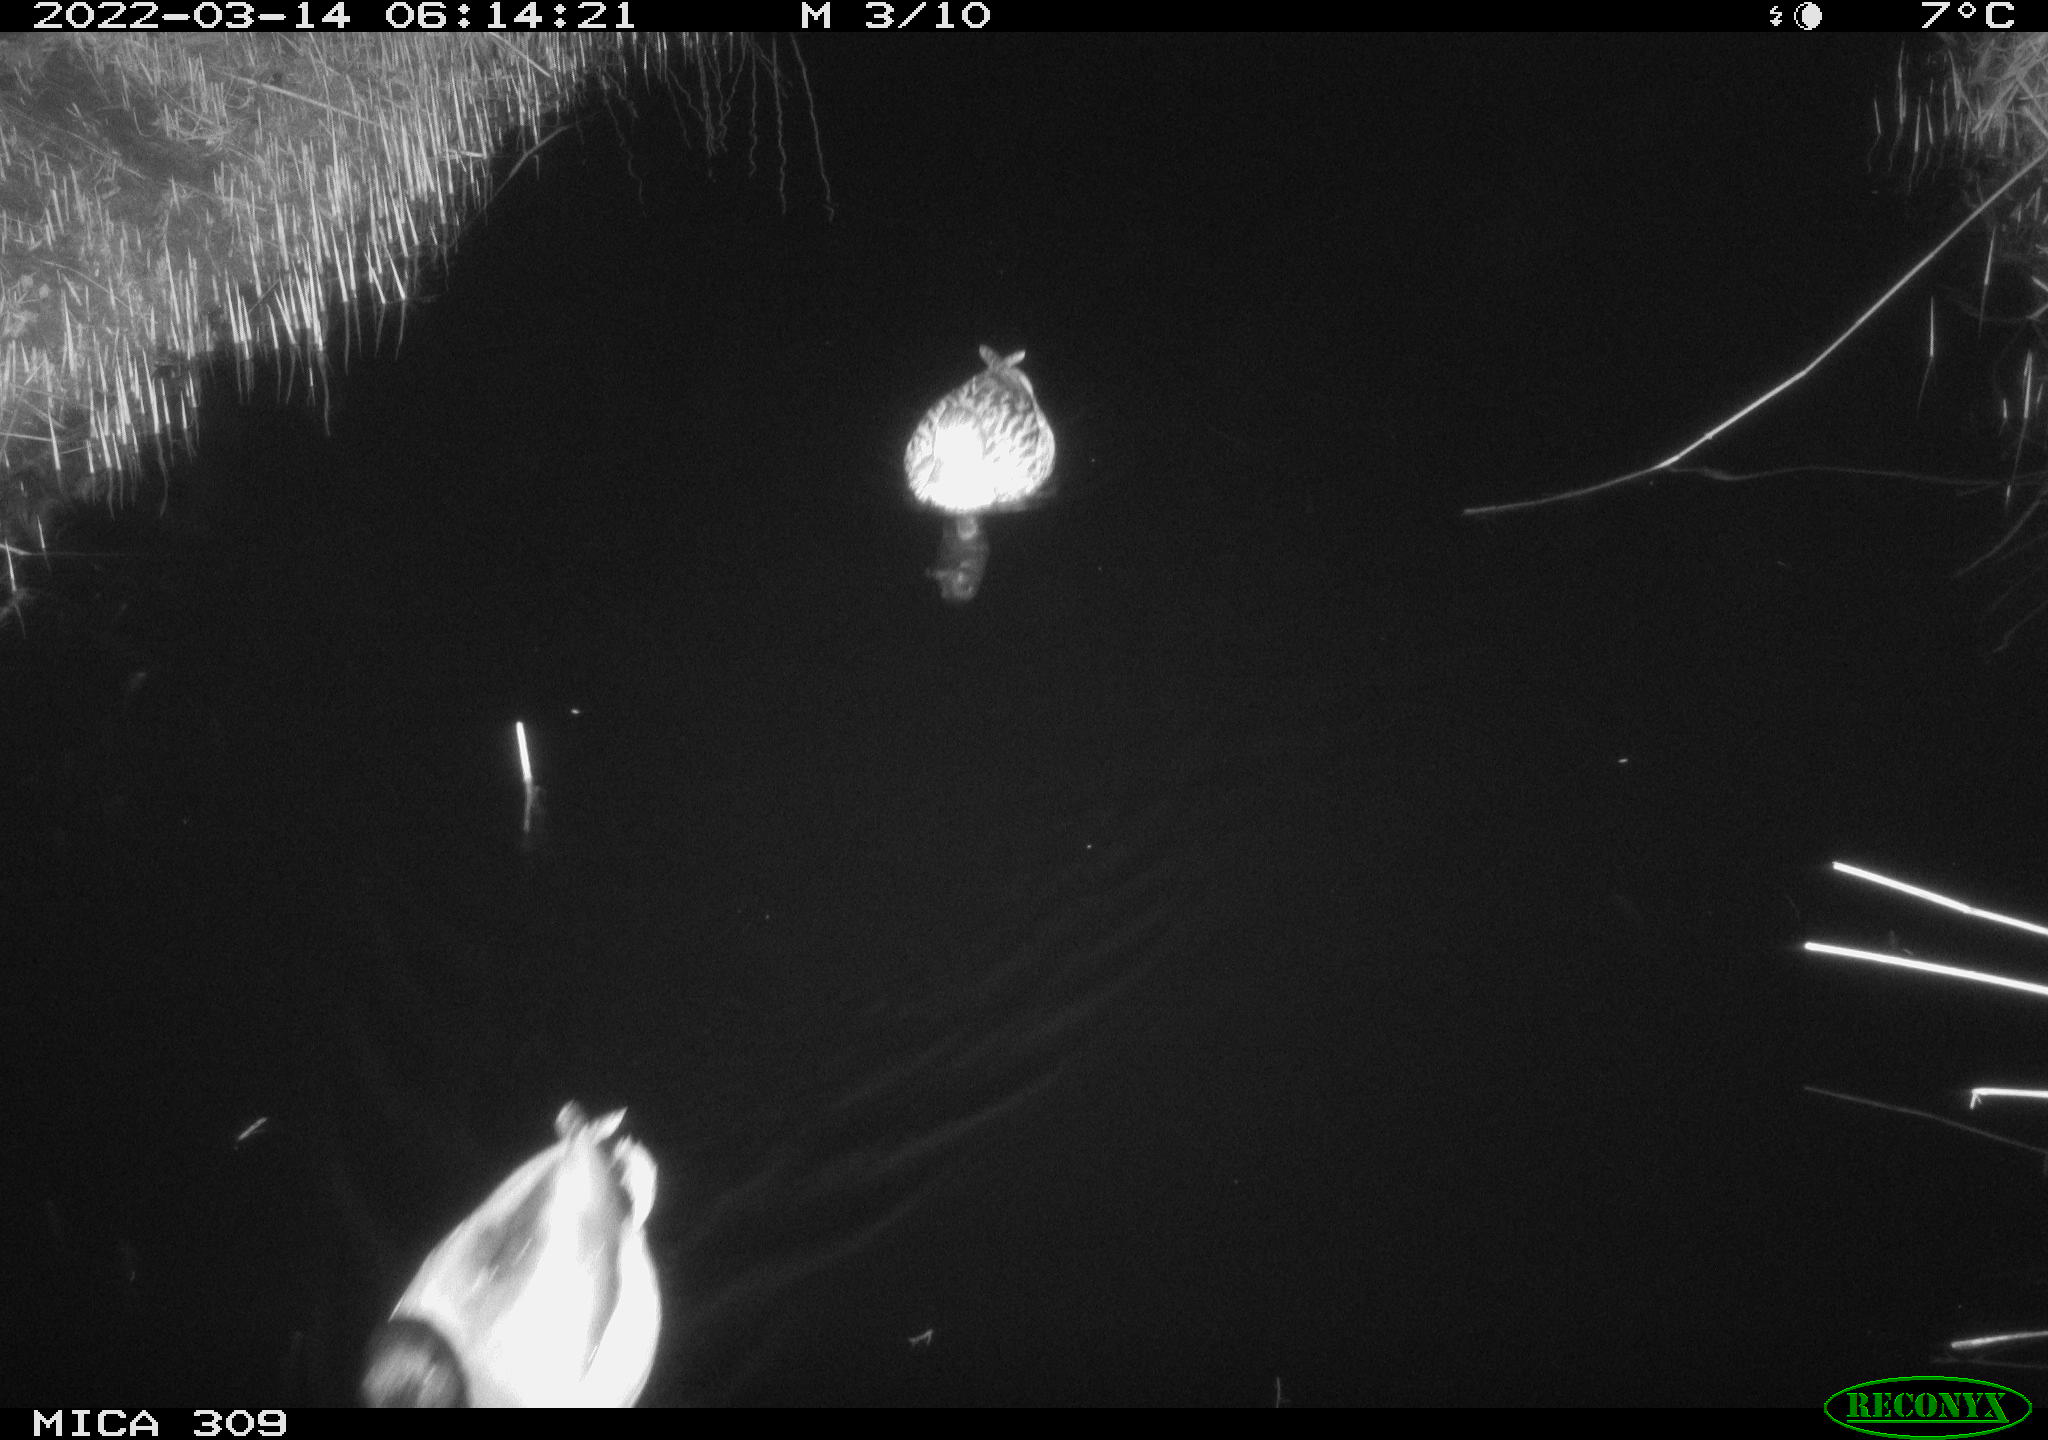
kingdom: Animalia
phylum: Chordata
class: Aves
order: Anseriformes
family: Anatidae
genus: Anas
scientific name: Anas platyrhynchos
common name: Mallard
